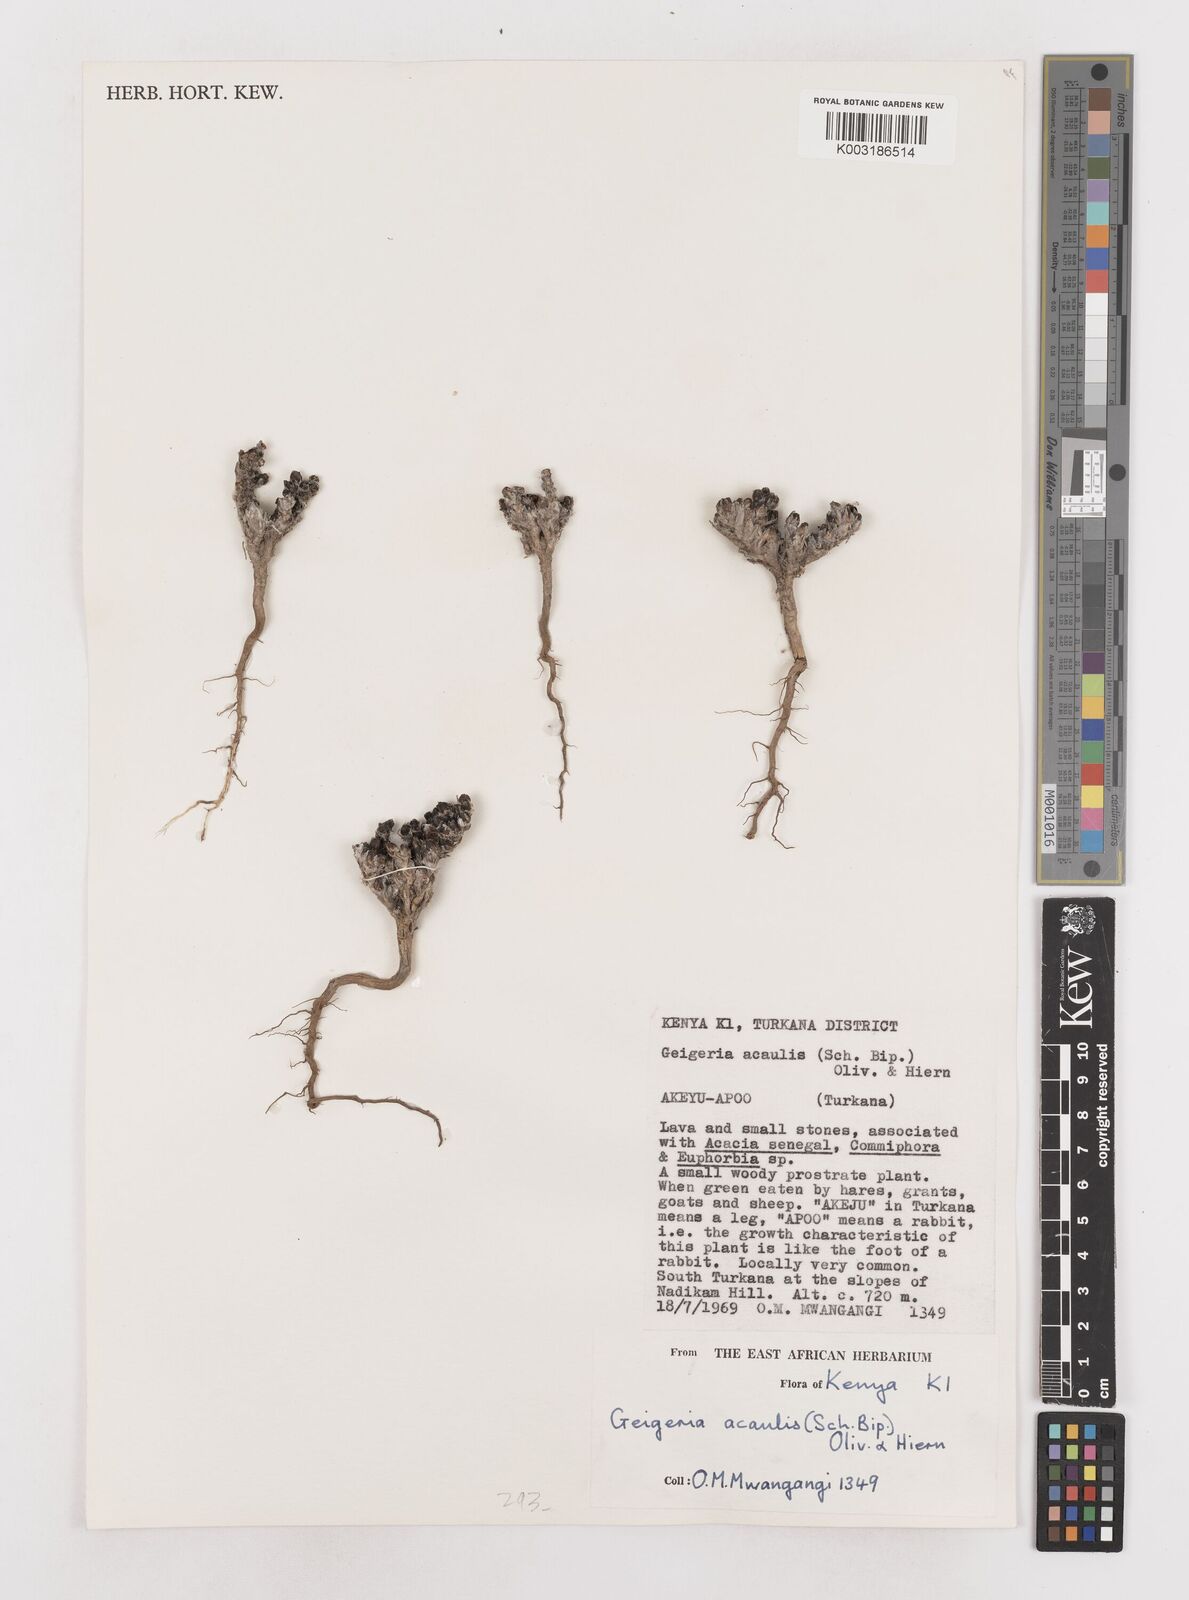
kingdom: Plantae
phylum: Tracheophyta
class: Magnoliopsida
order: Asterales
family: Asteraceae
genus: Geigeria
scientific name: Geigeria acaulis
